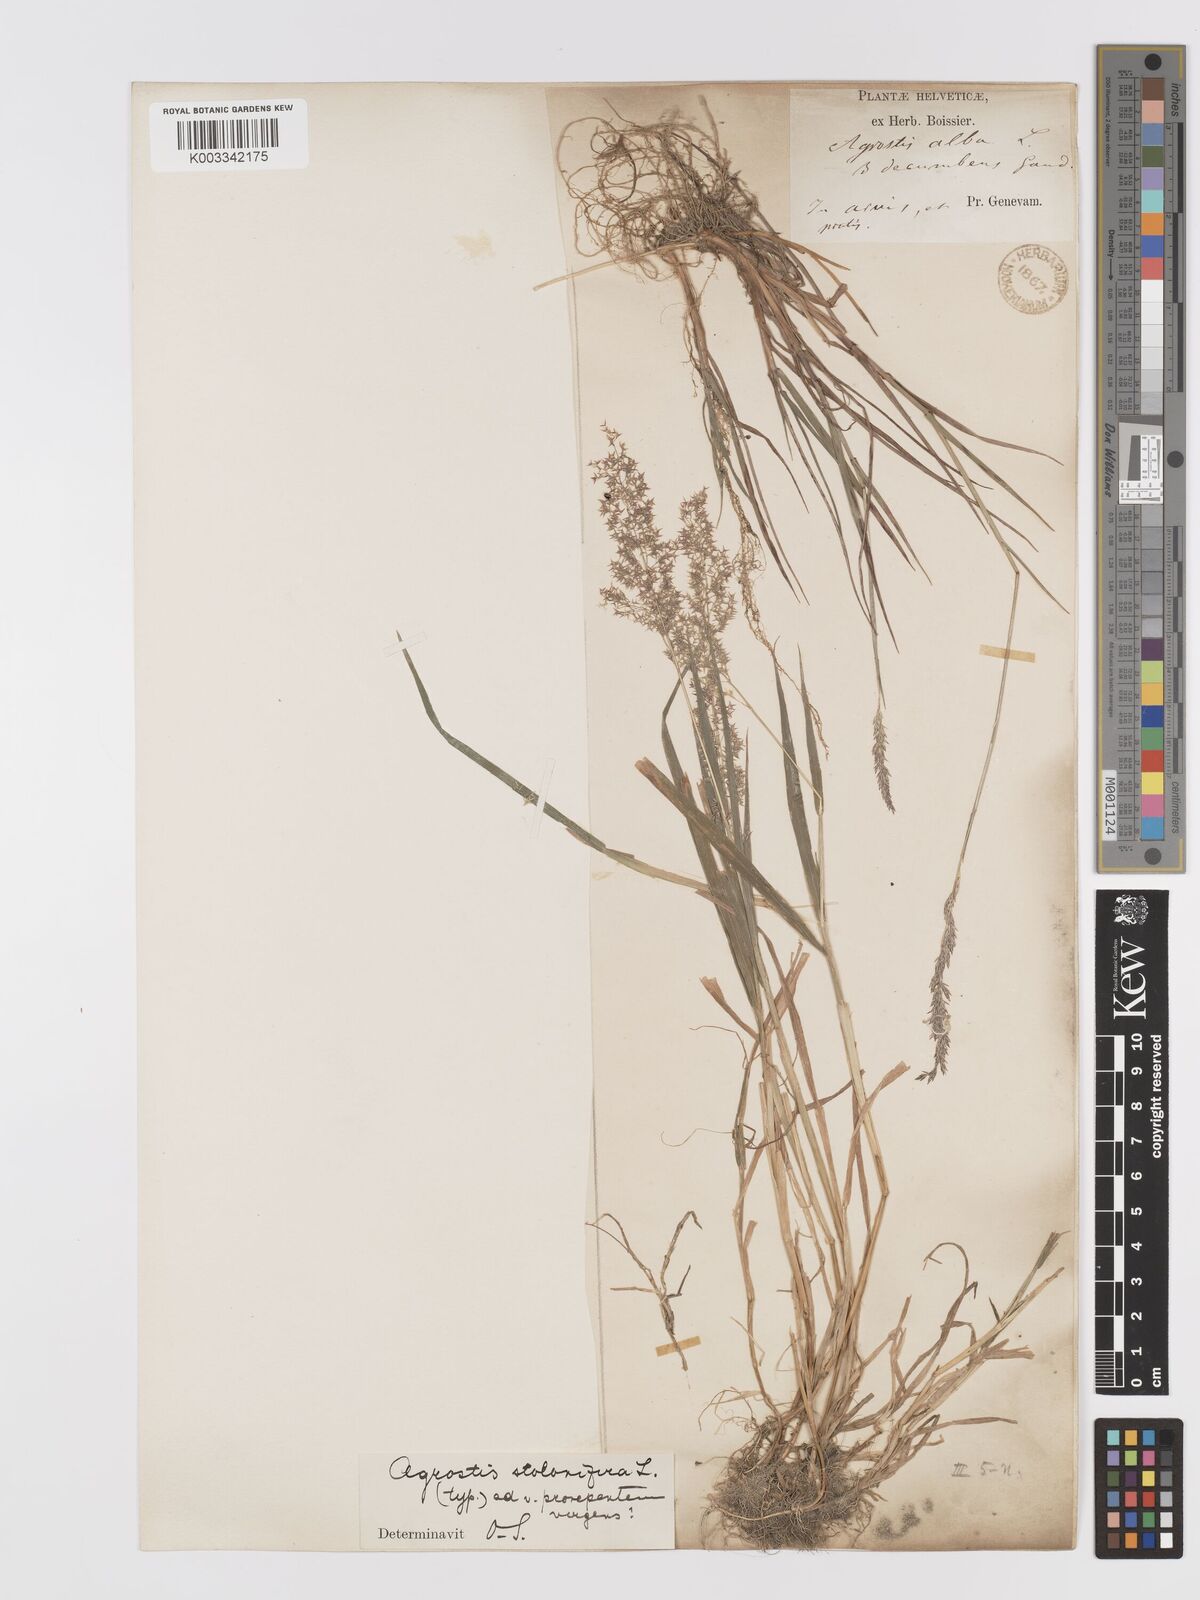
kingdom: Plantae
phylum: Tracheophyta
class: Liliopsida
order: Poales
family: Poaceae
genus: Agrostis
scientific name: Agrostis stolonifera
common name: Creeping bentgrass
